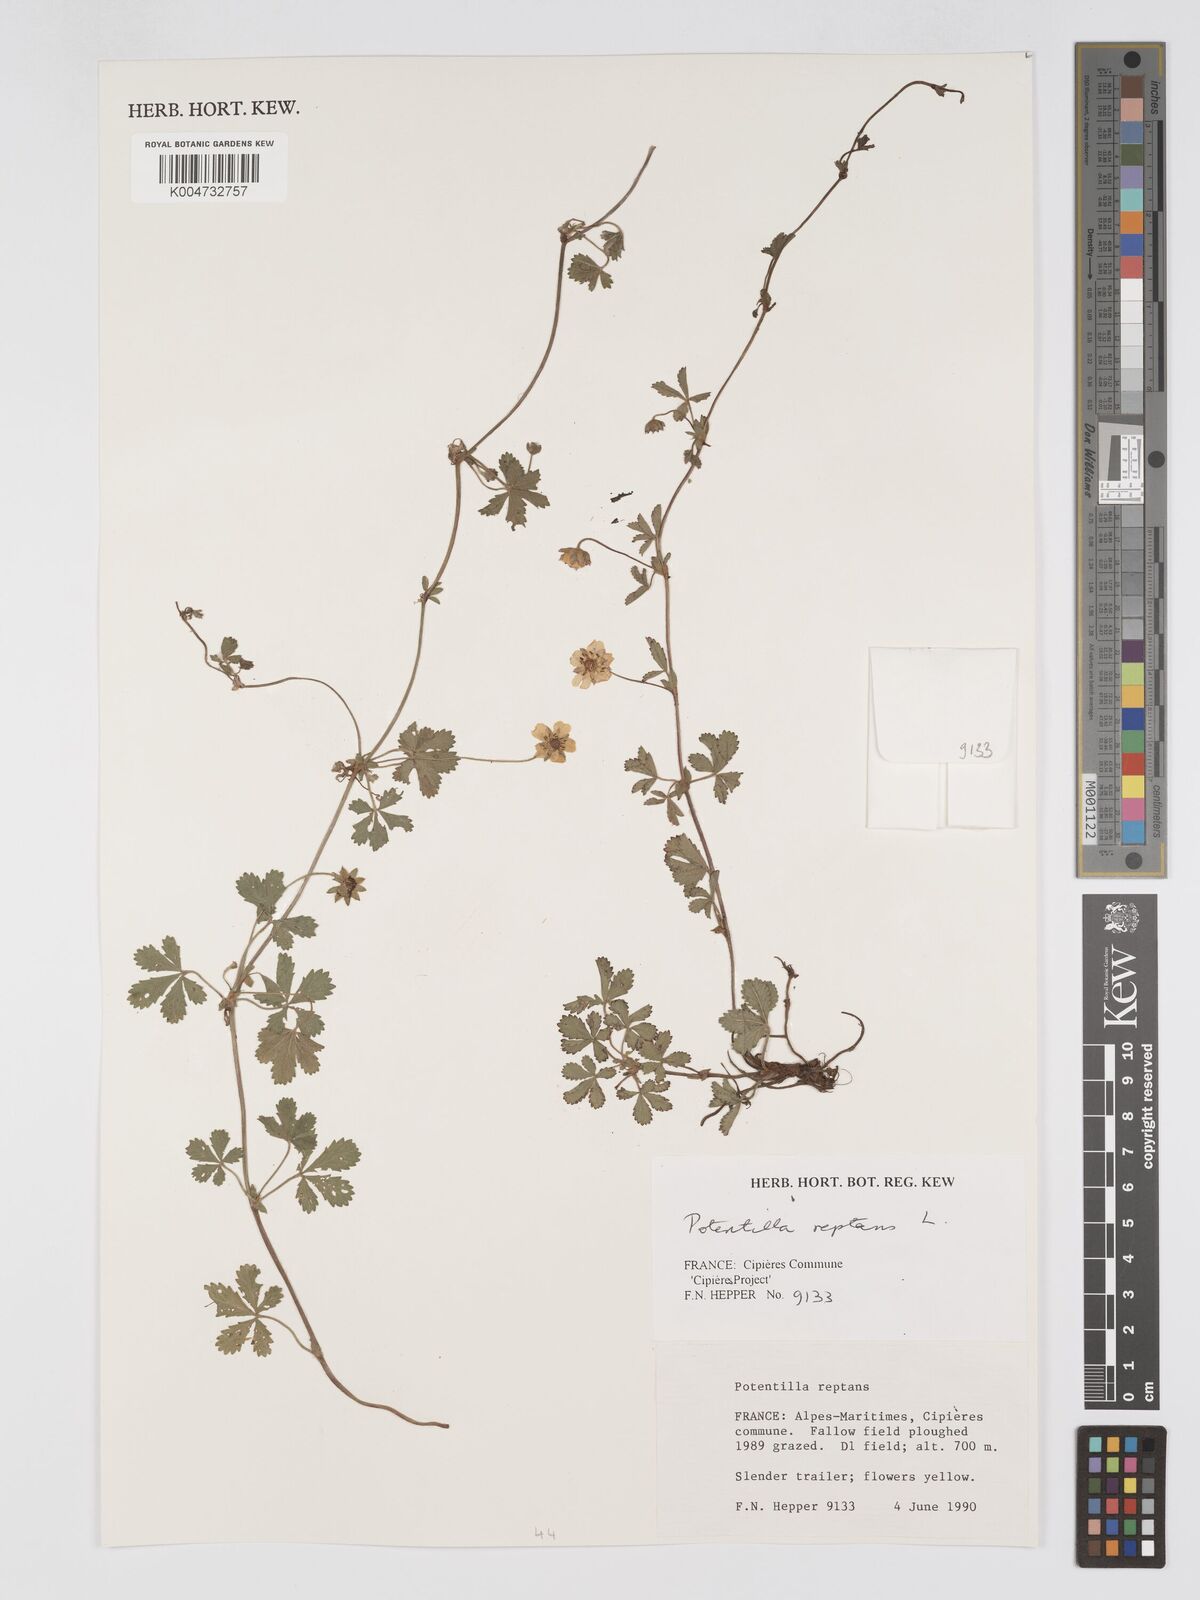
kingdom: Plantae
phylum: Tracheophyta
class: Magnoliopsida
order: Rosales
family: Rosaceae
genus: Potentilla
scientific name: Potentilla
